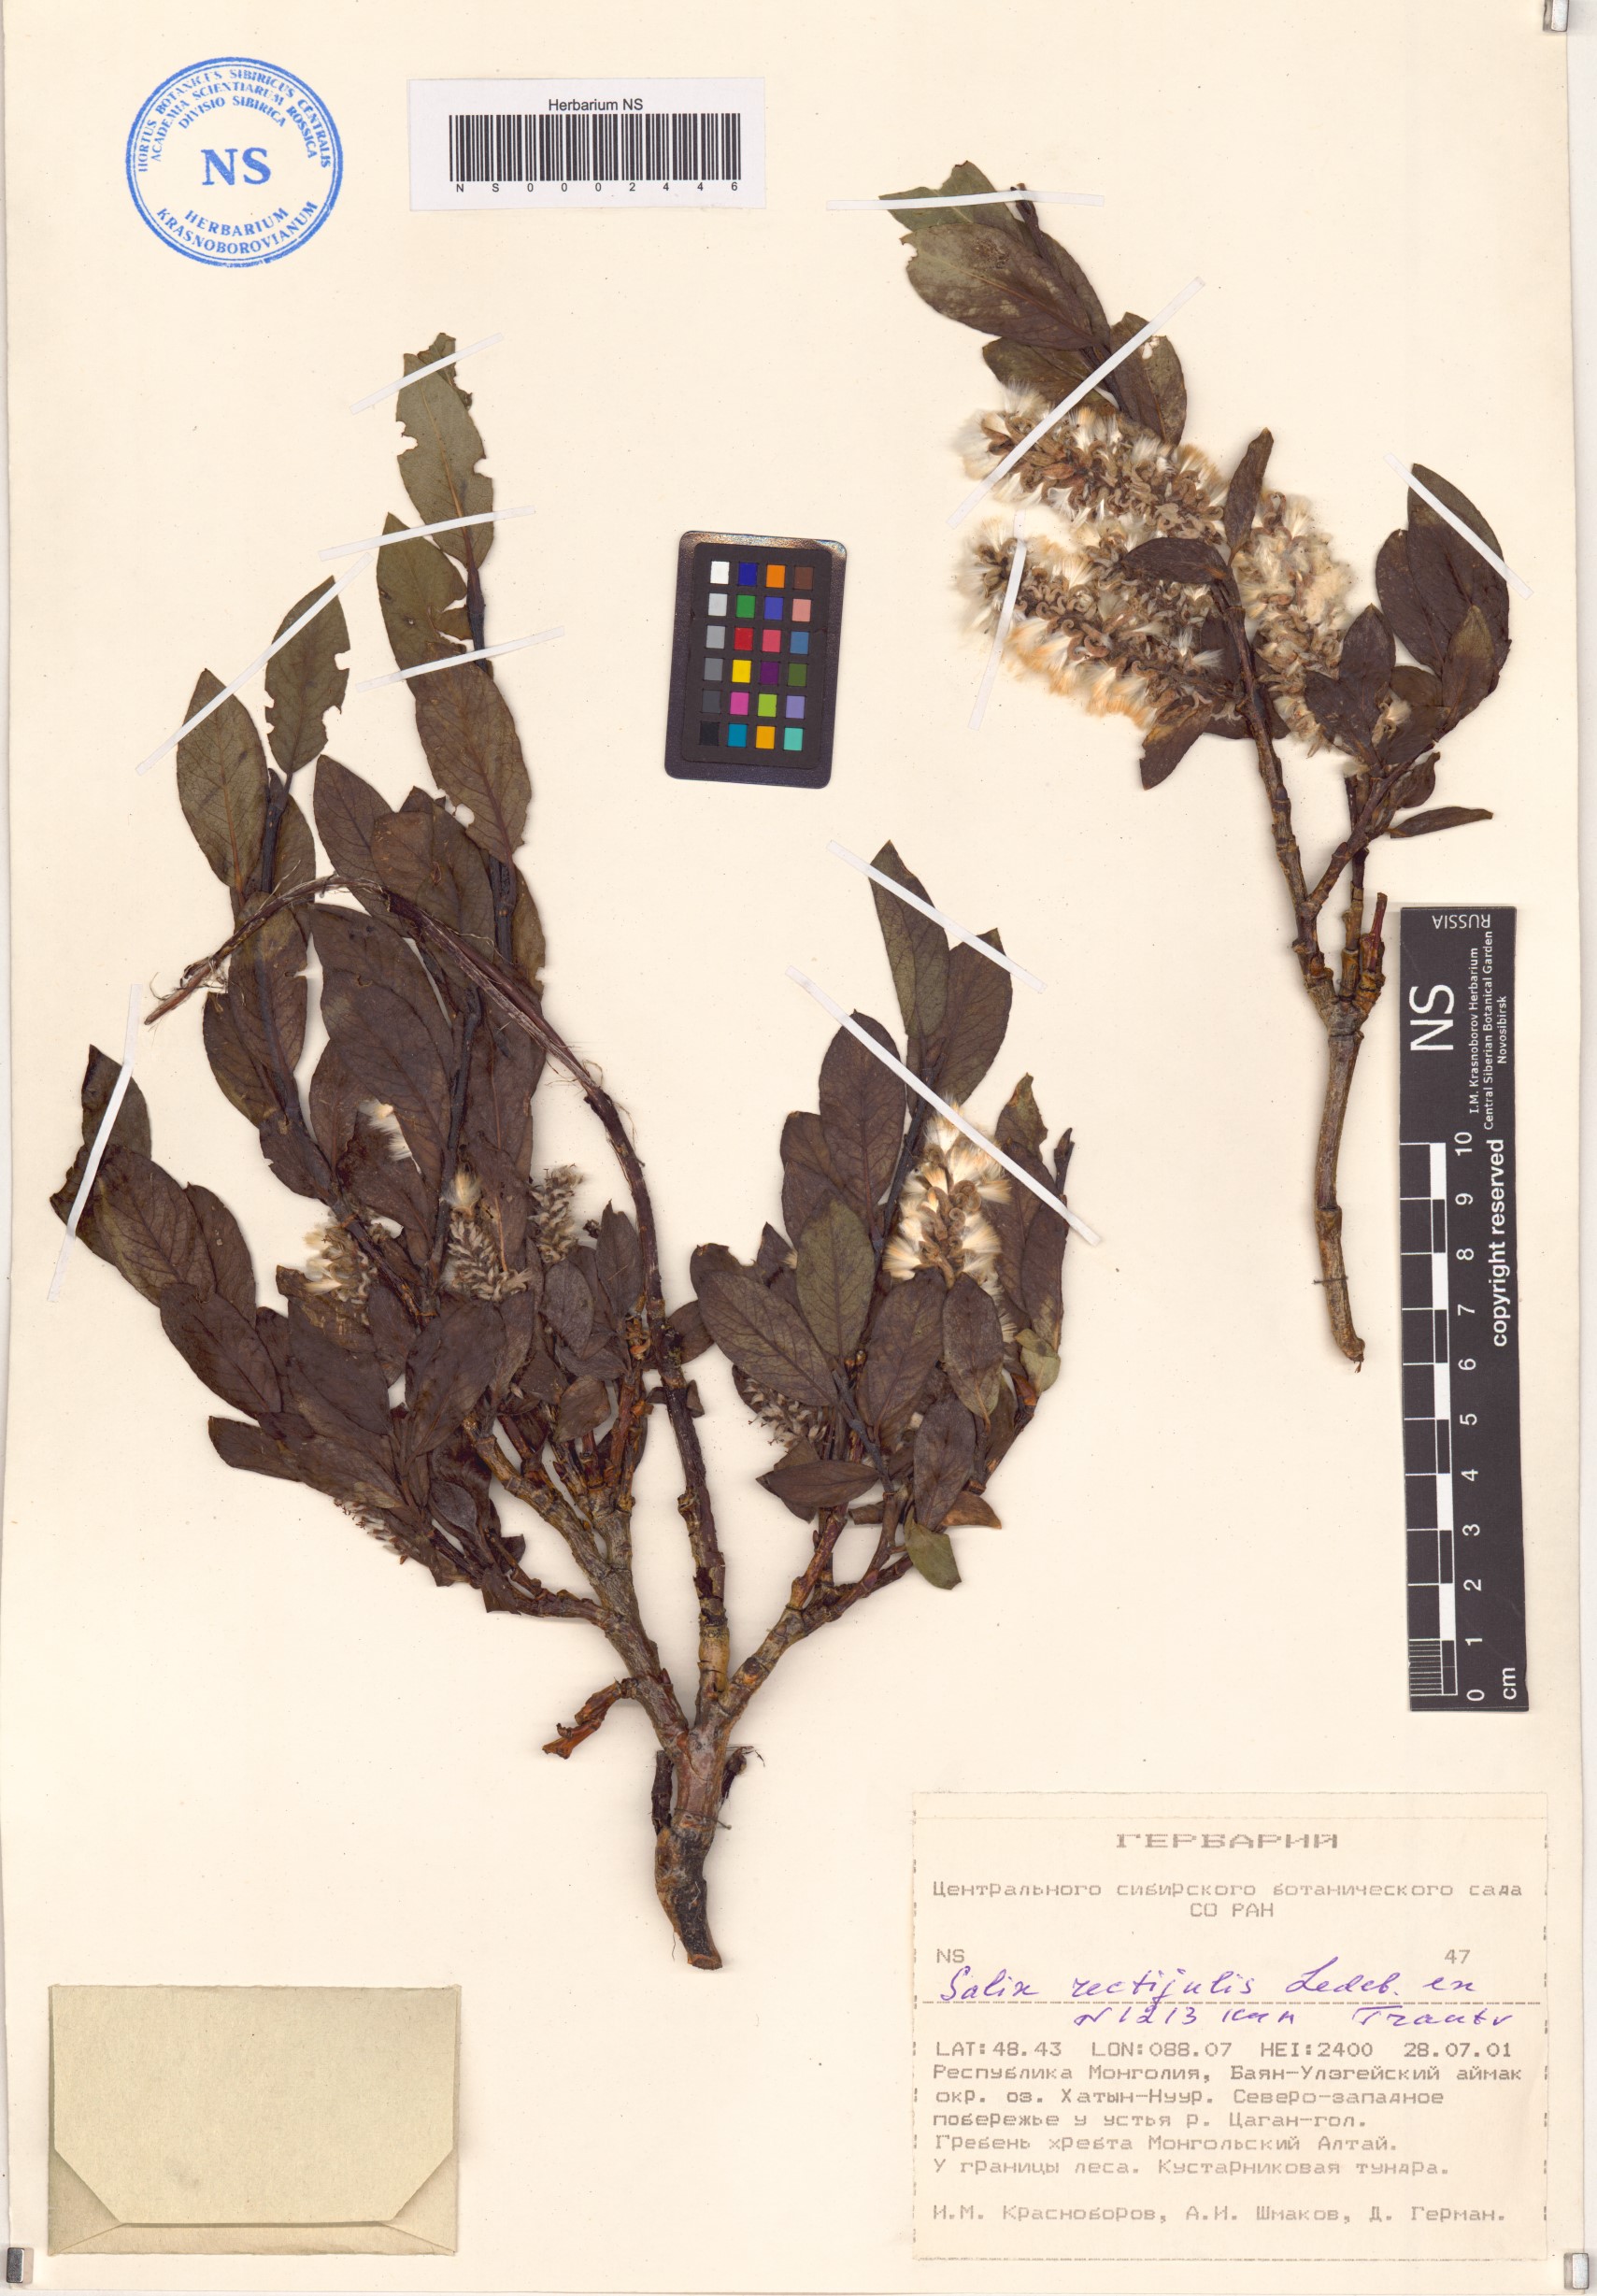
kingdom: Plantae
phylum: Tracheophyta
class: Magnoliopsida
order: Malpighiales
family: Salicaceae
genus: Salix
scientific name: Salix rectijulis
